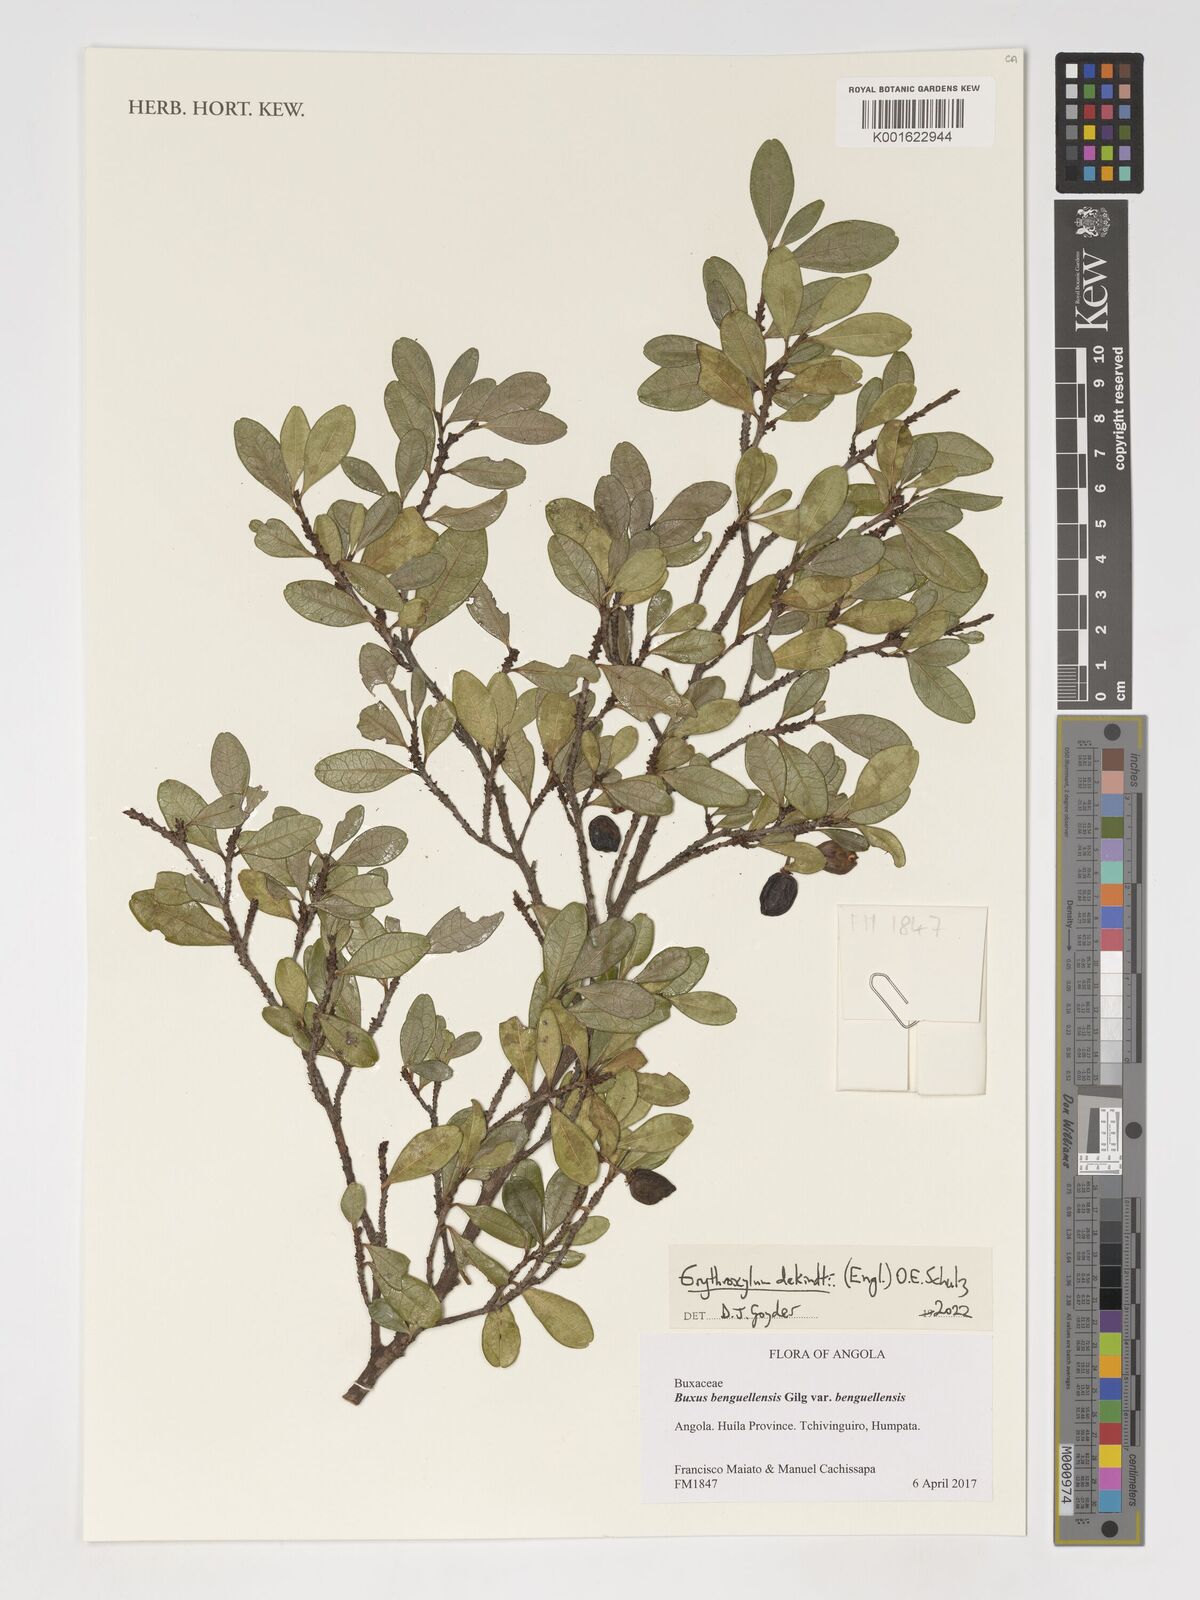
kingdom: Plantae
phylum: Tracheophyta
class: Magnoliopsida
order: Malpighiales
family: Erythroxylaceae
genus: Erythroxylum
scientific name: Erythroxylum dekindtii
